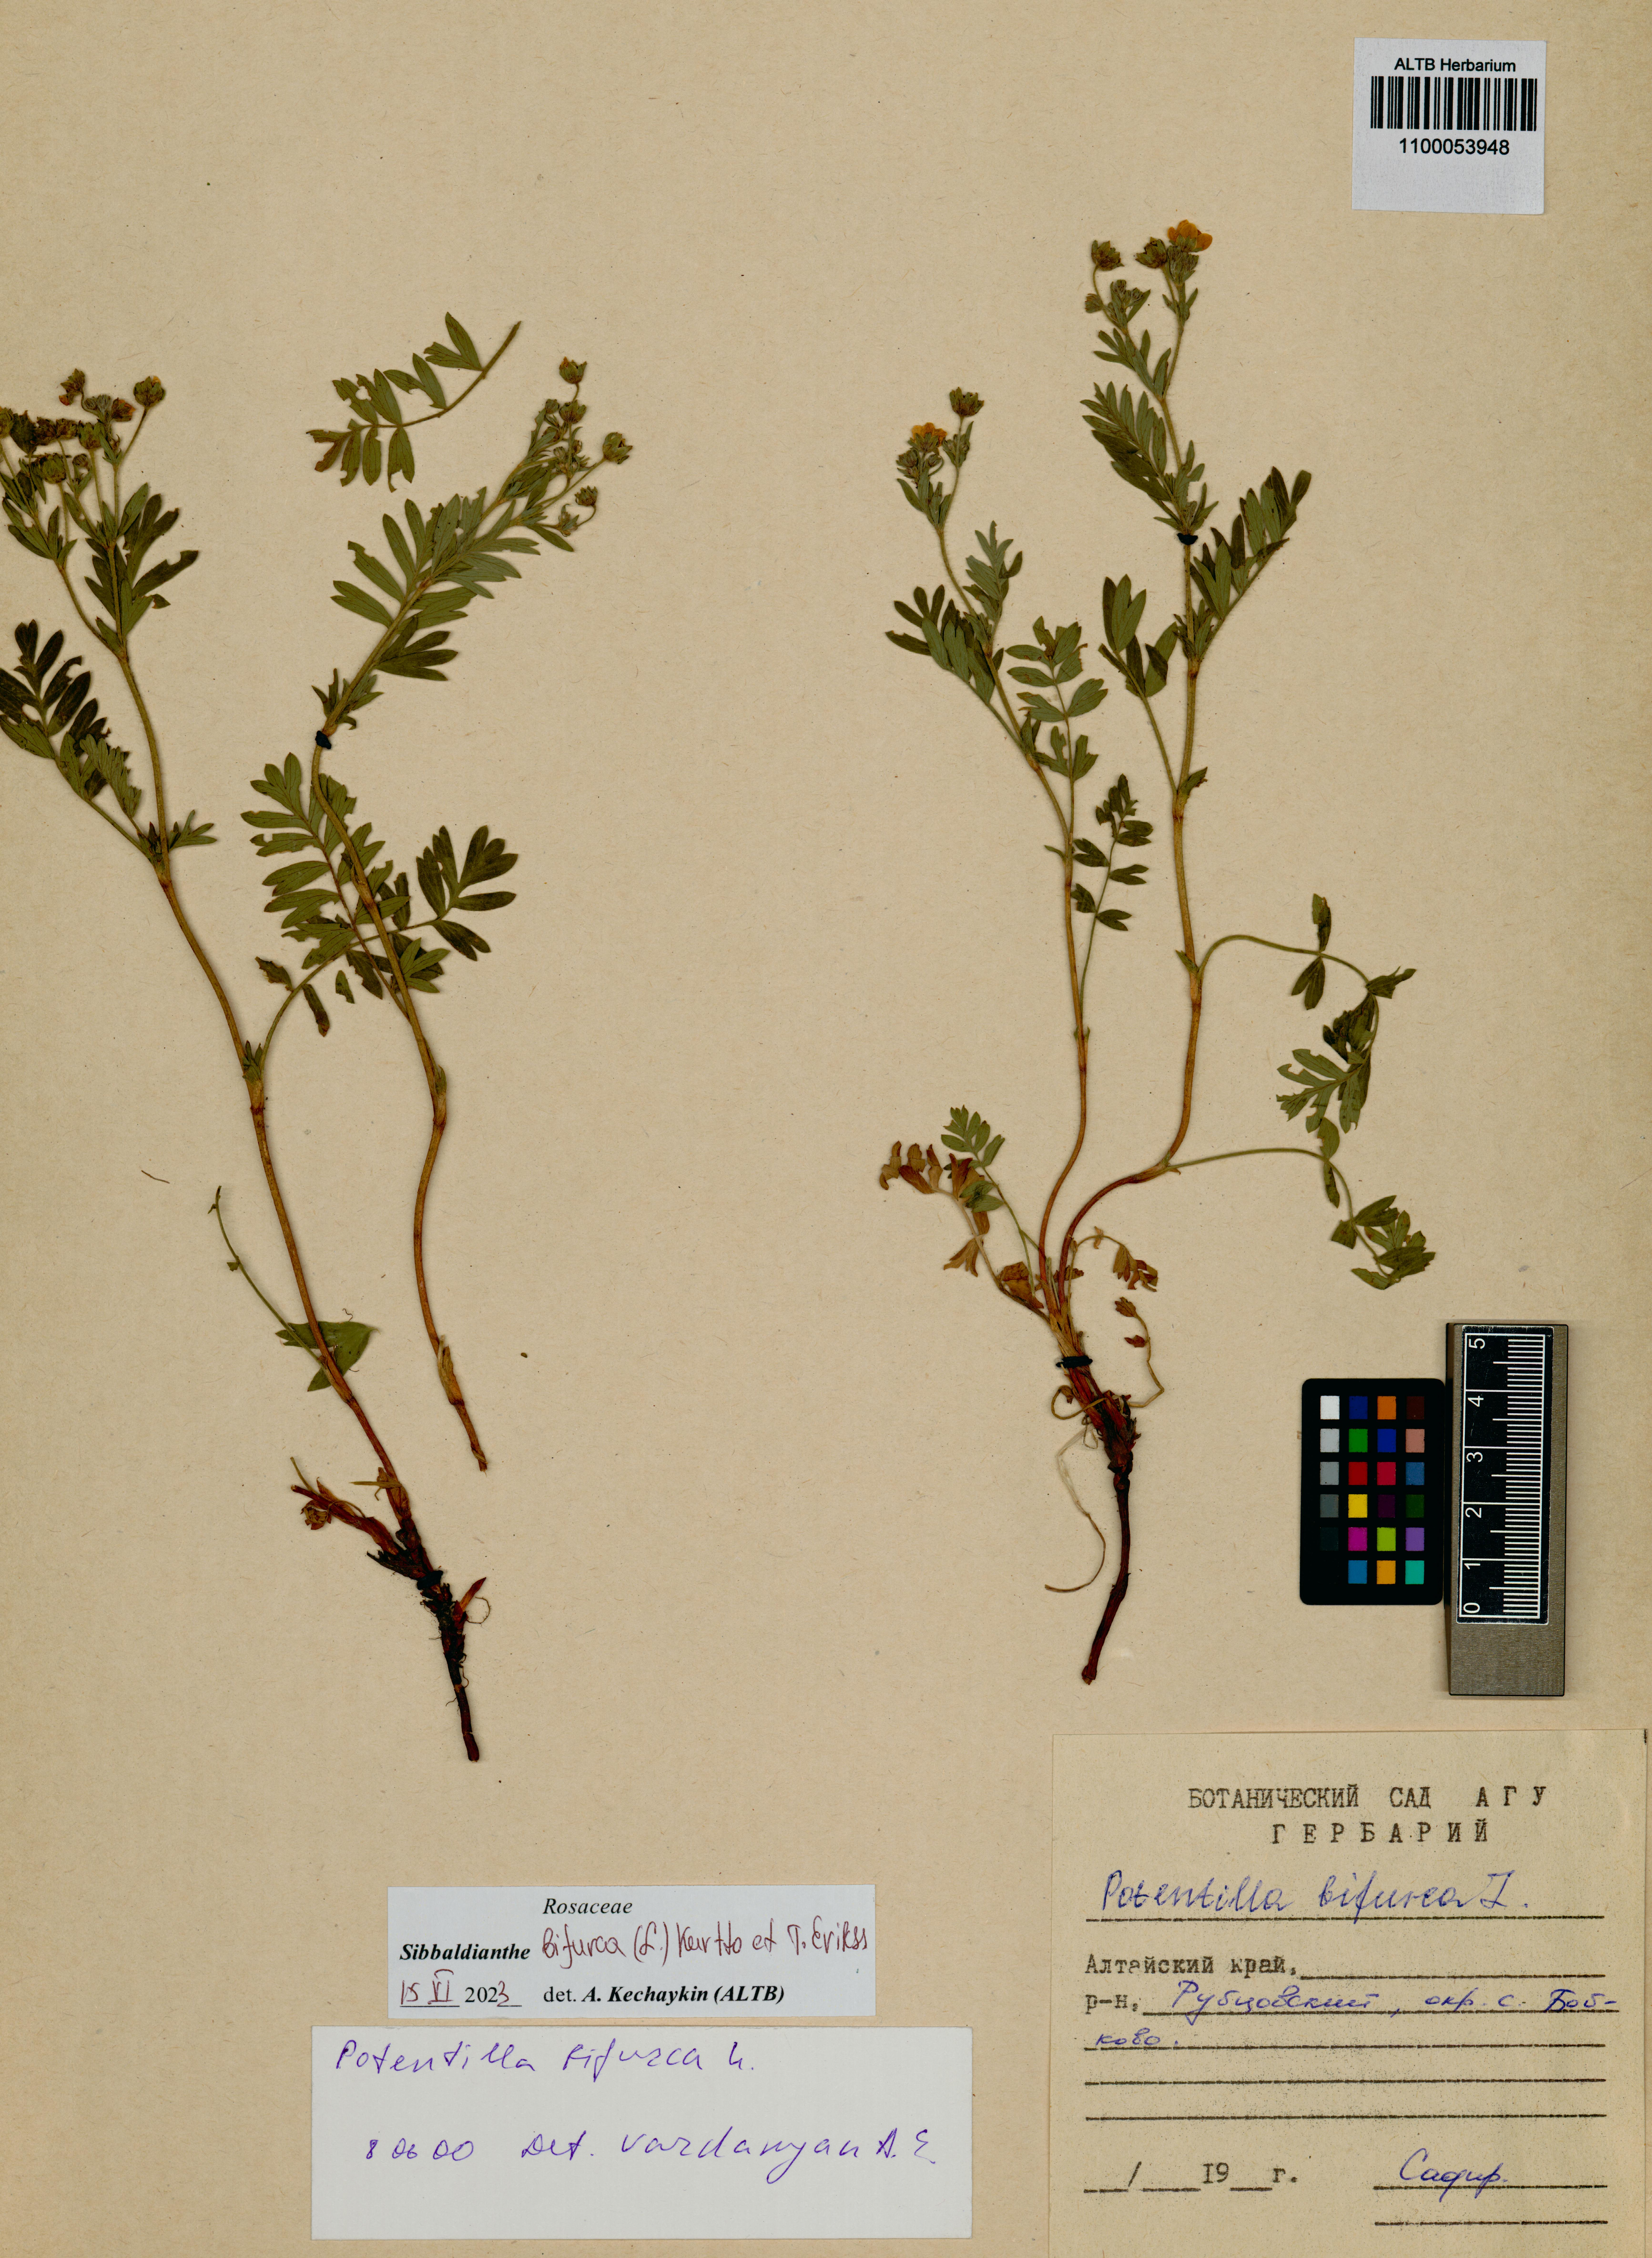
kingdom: Plantae
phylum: Tracheophyta
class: Magnoliopsida
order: Rosales
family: Rosaceae
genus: Sibbaldianthe
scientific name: Sibbaldianthe bifurca
